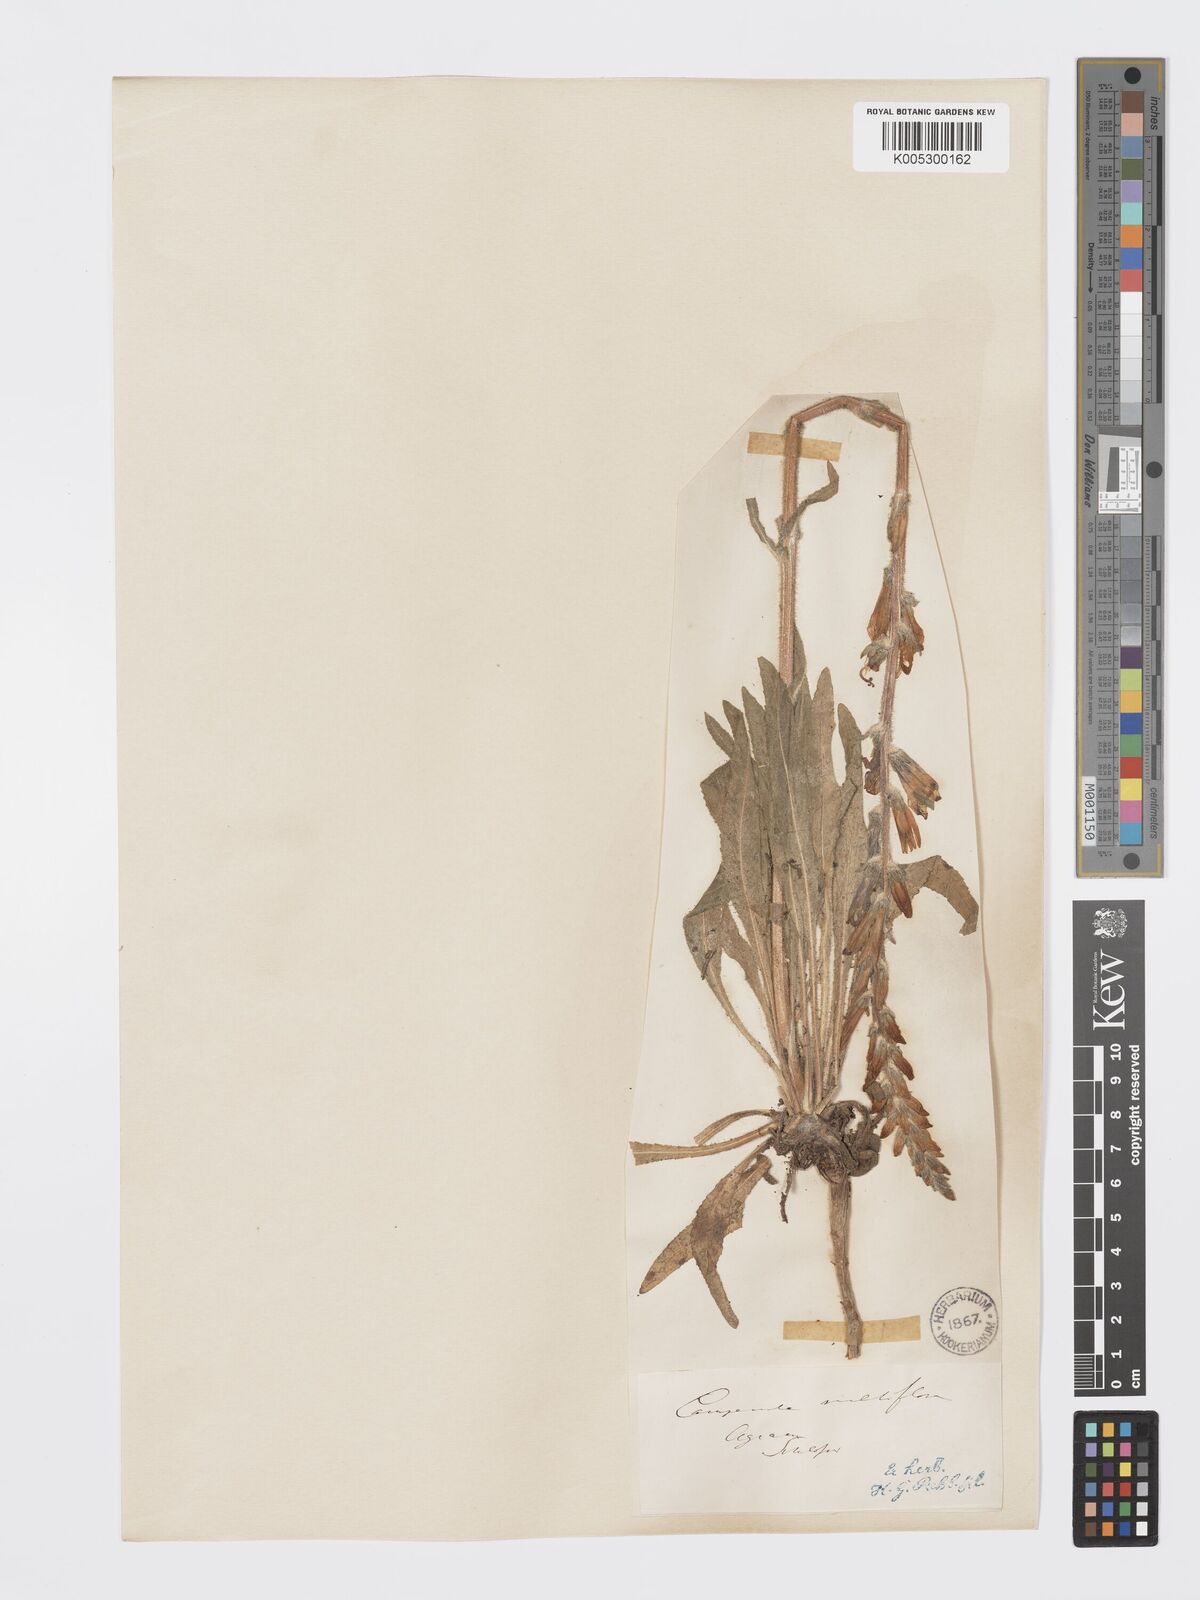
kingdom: Plantae
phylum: Tracheophyta
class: Magnoliopsida
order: Asterales
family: Campanulaceae
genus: Campanula
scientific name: Campanula macrostachya
